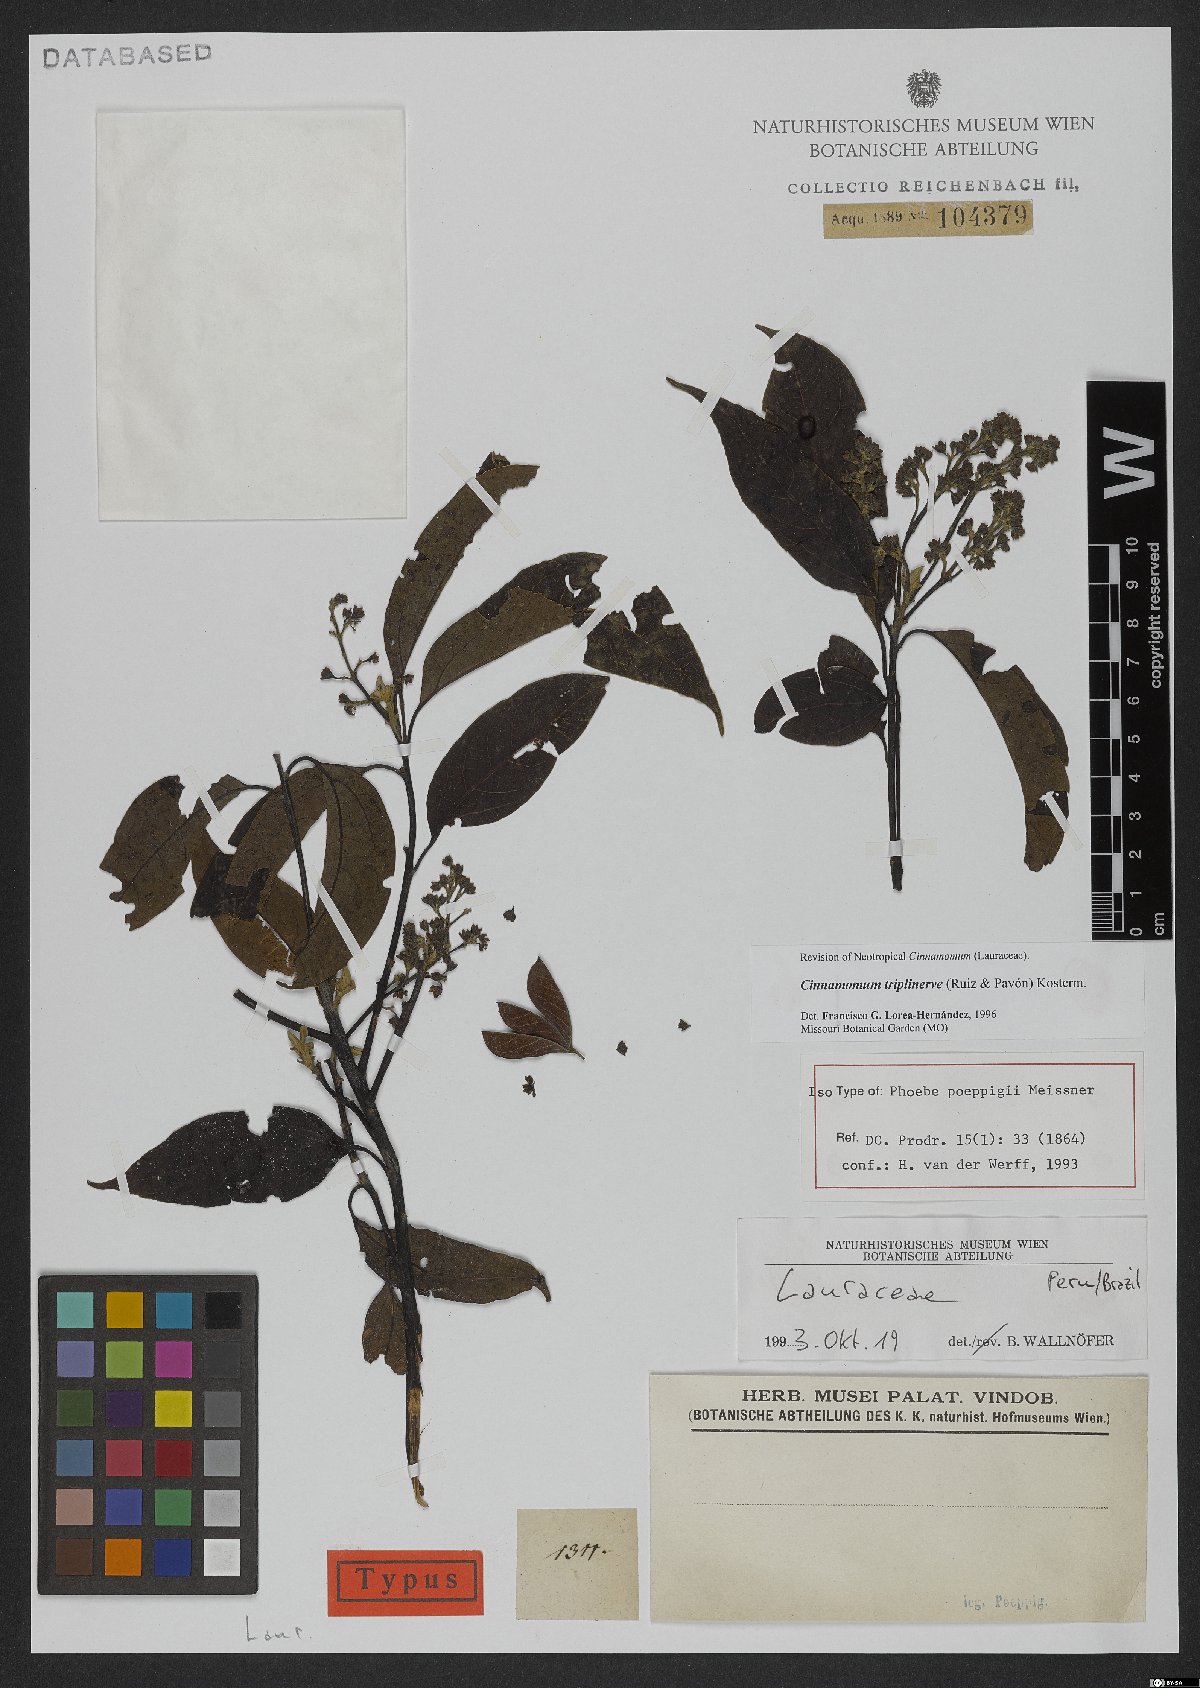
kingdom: Plantae
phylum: Tracheophyta
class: Magnoliopsida
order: Laurales
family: Lauraceae
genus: Aiouea
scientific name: Aiouea montana
